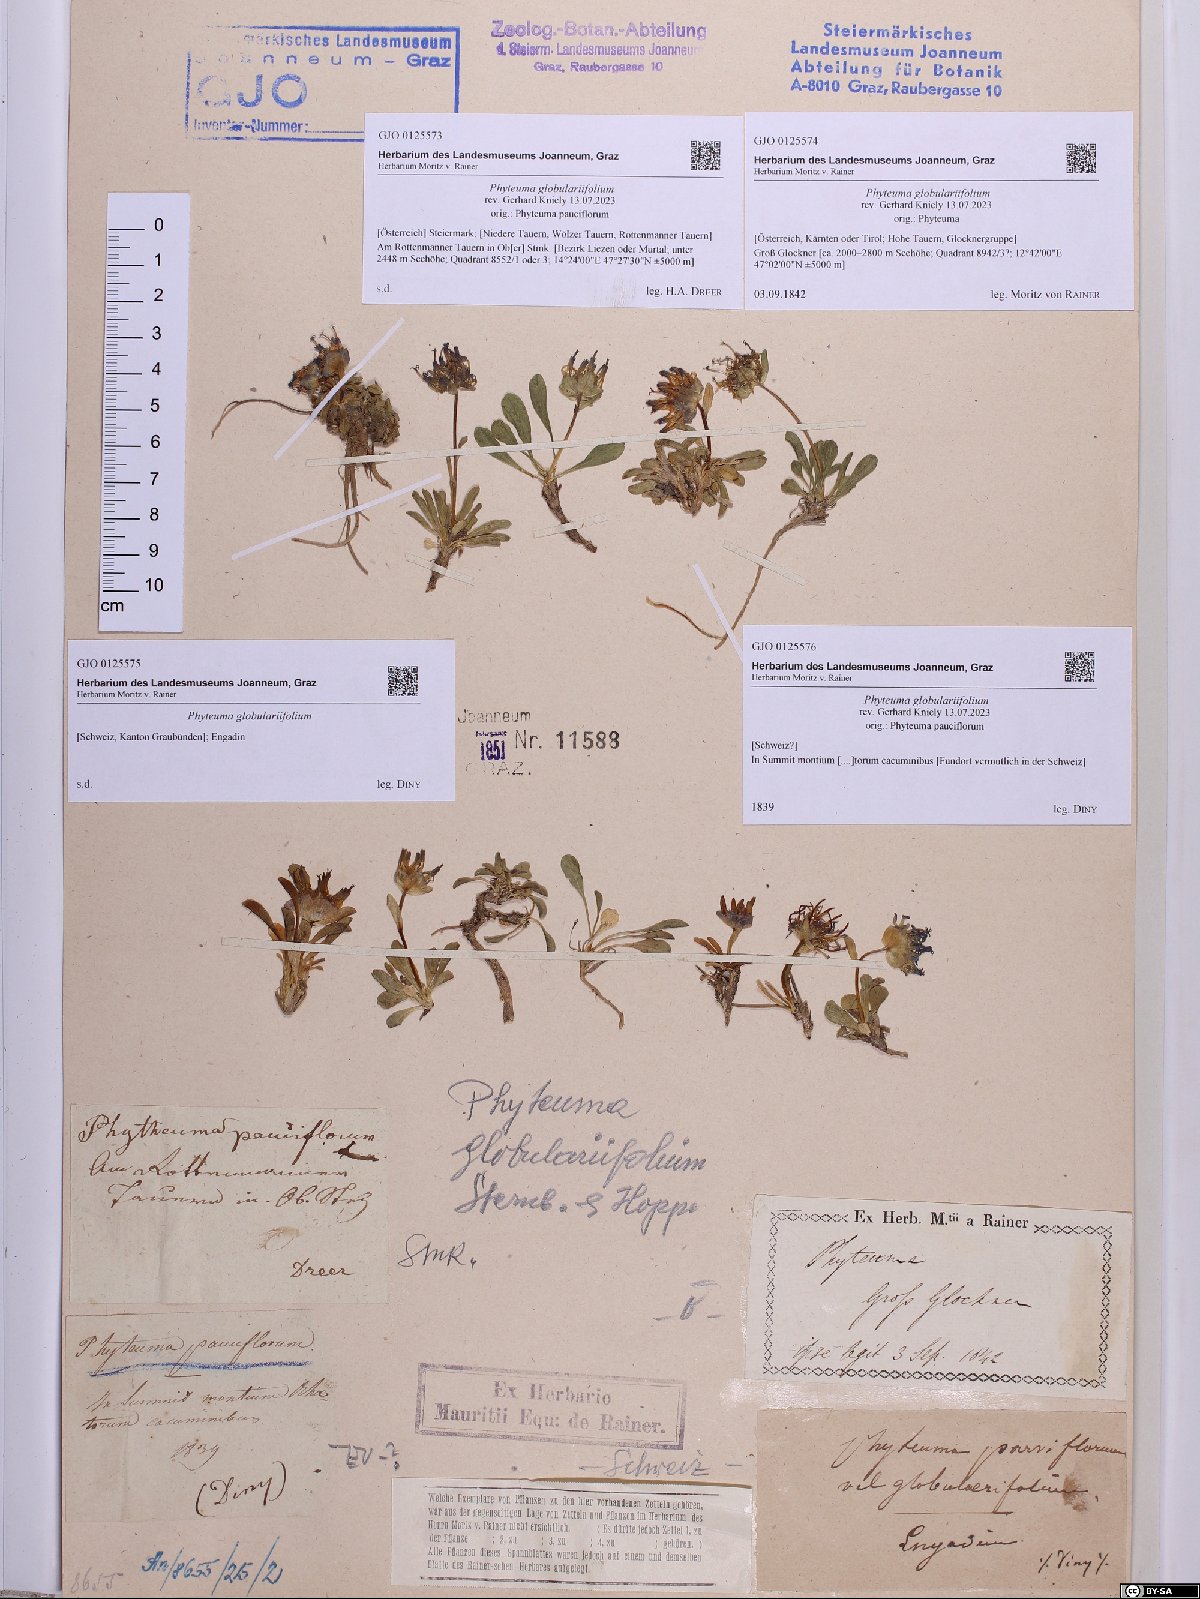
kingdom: Plantae
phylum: Tracheophyta
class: Magnoliopsida
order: Asterales
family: Campanulaceae
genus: Phyteuma
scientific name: Phyteuma globulariifolium
